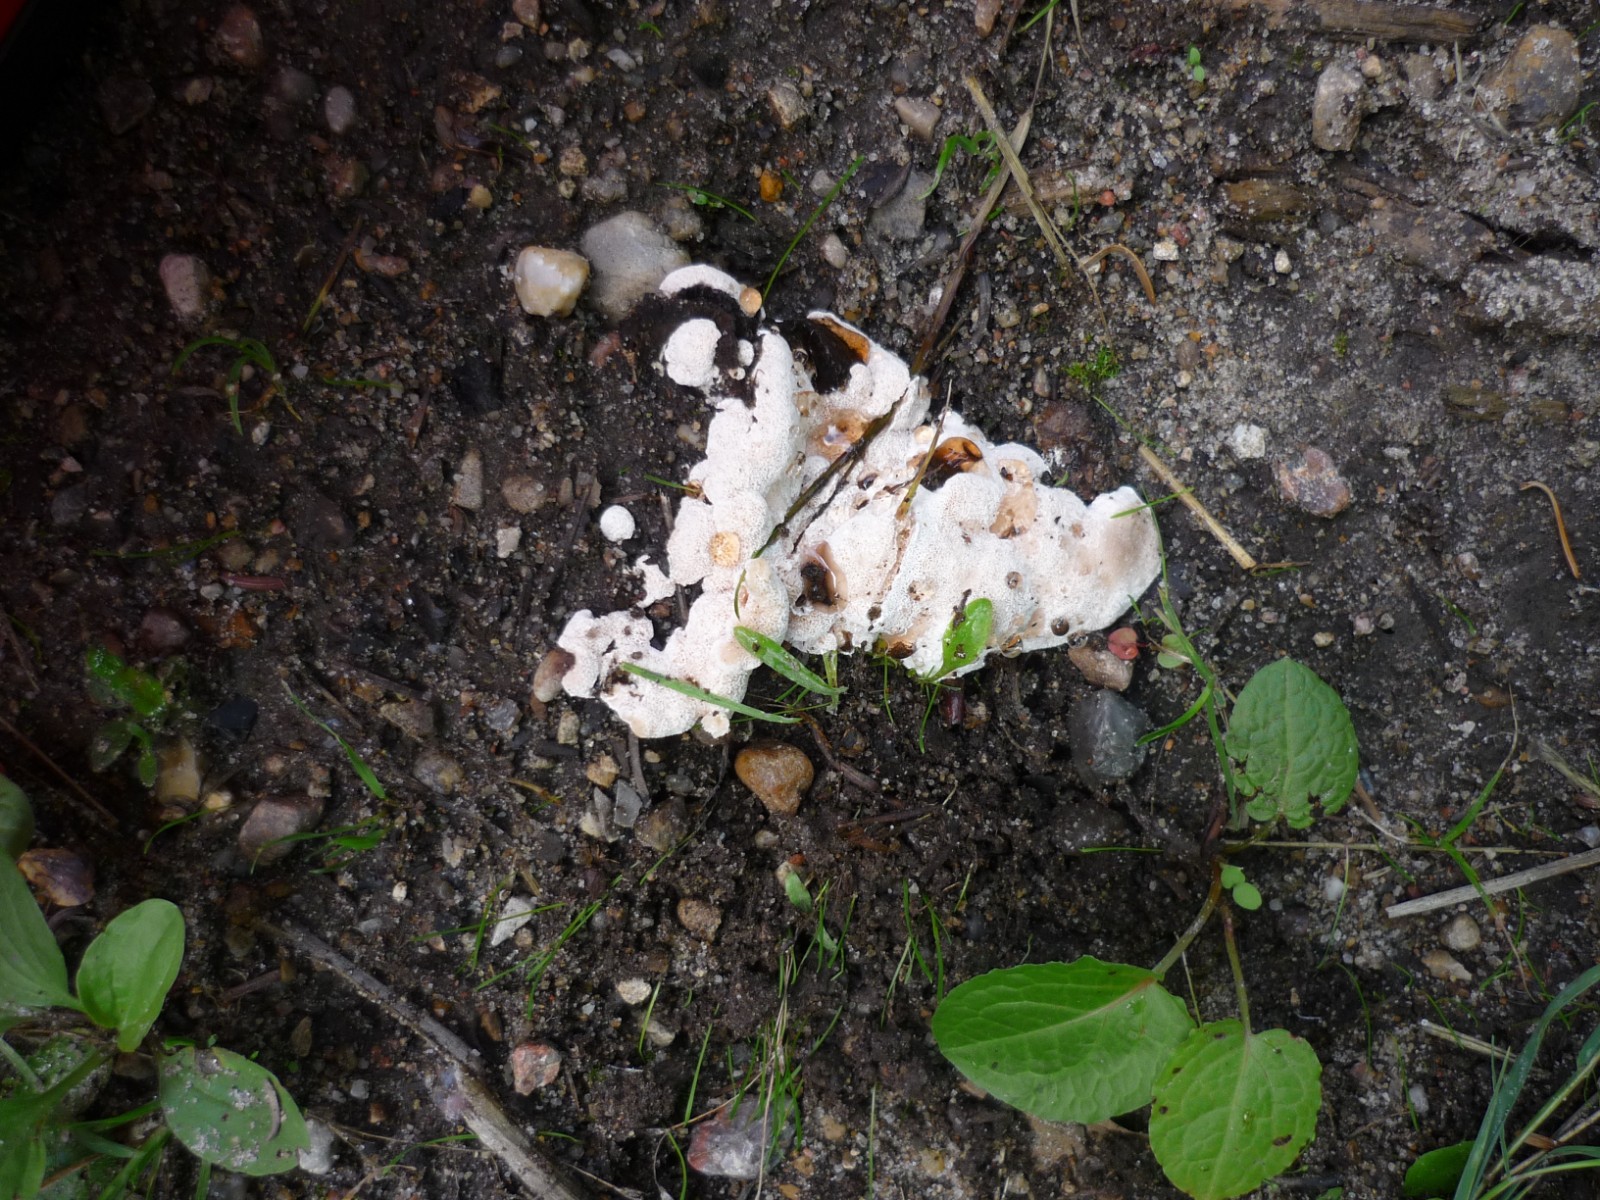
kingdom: Fungi
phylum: Basidiomycota
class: Agaricomycetes
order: Polyporales
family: Podoscyphaceae
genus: Abortiporus
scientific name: Abortiporus biennis
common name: rødmende pjalteporesvamp
